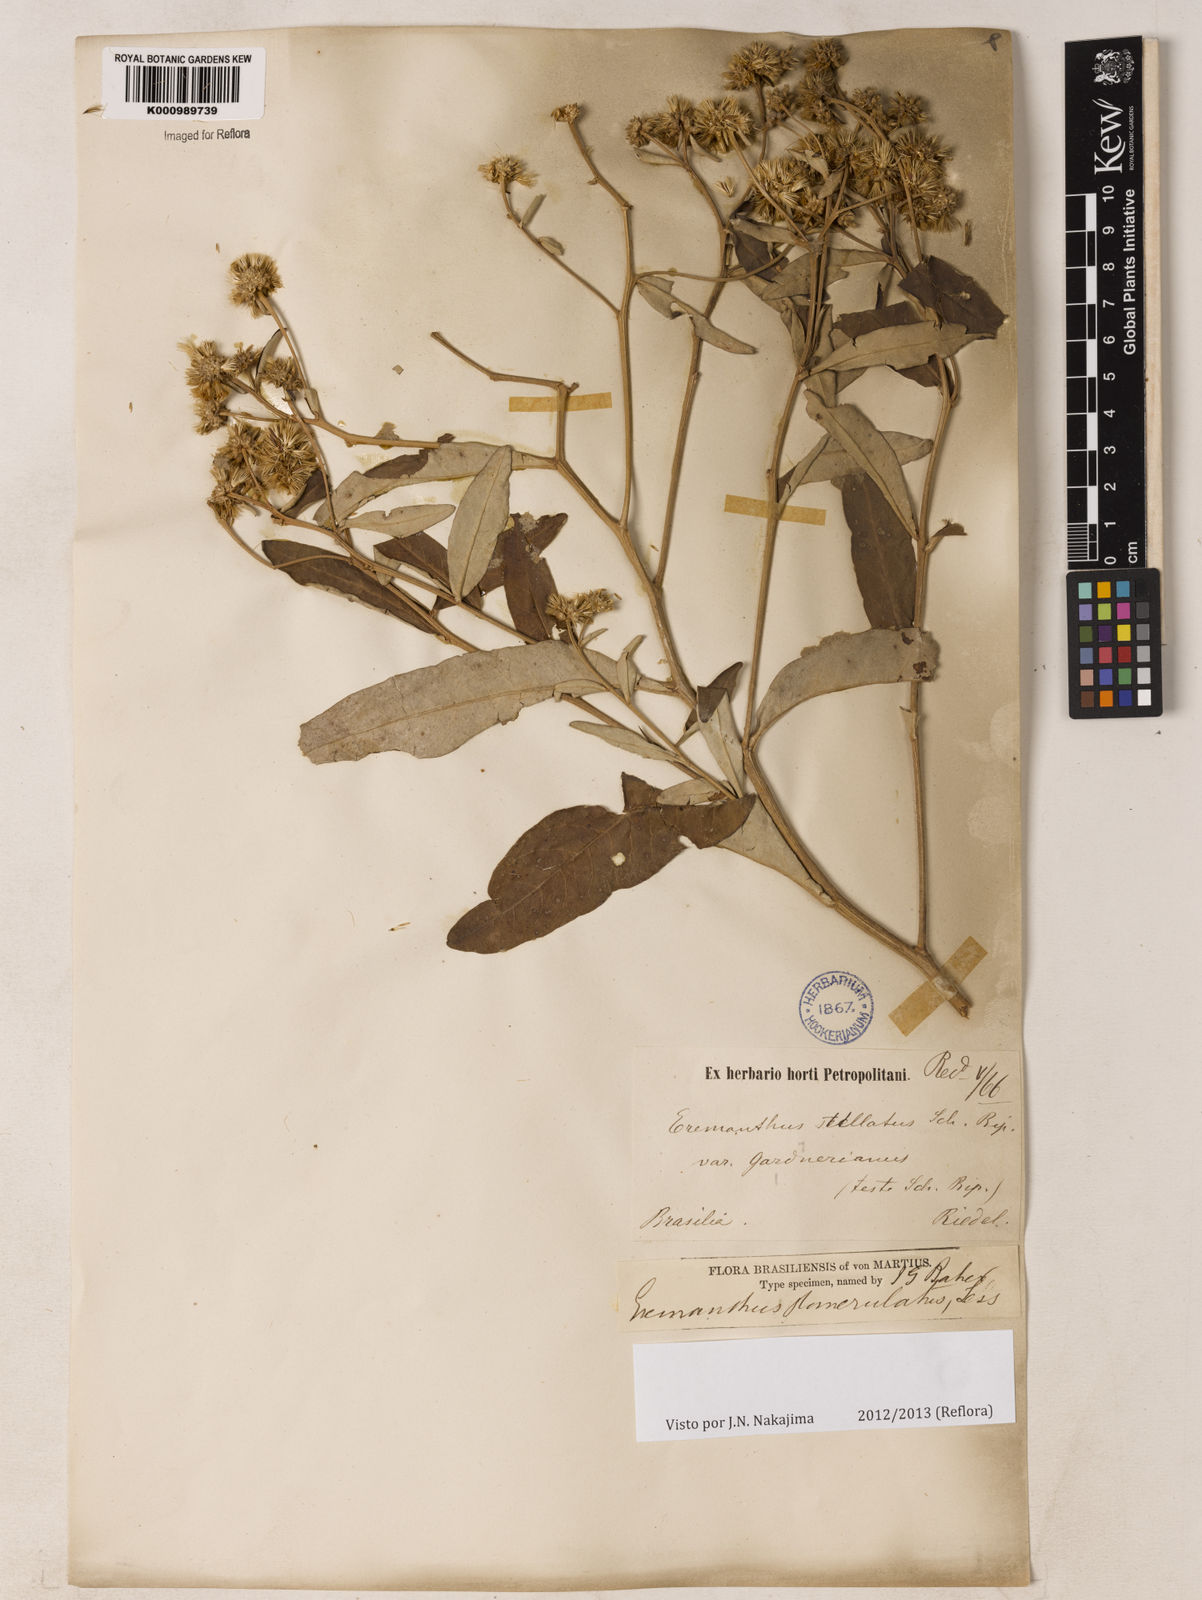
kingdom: Plantae
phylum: Tracheophyta
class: Magnoliopsida
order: Asterales
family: Asteraceae
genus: Eremanthus
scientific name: Eremanthus glomerulatus
